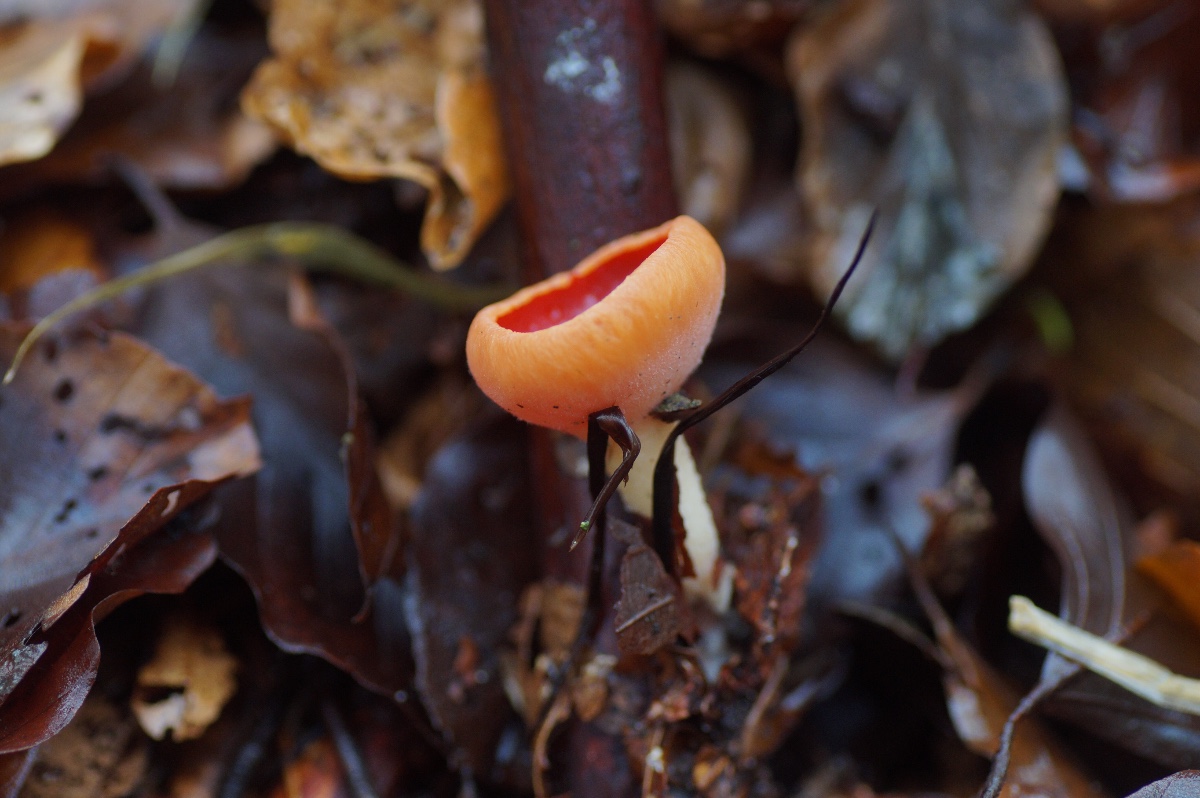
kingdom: Fungi
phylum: Ascomycota
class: Pezizomycetes
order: Pezizales
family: Sarcoscyphaceae
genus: Sarcoscypha
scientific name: Sarcoscypha
